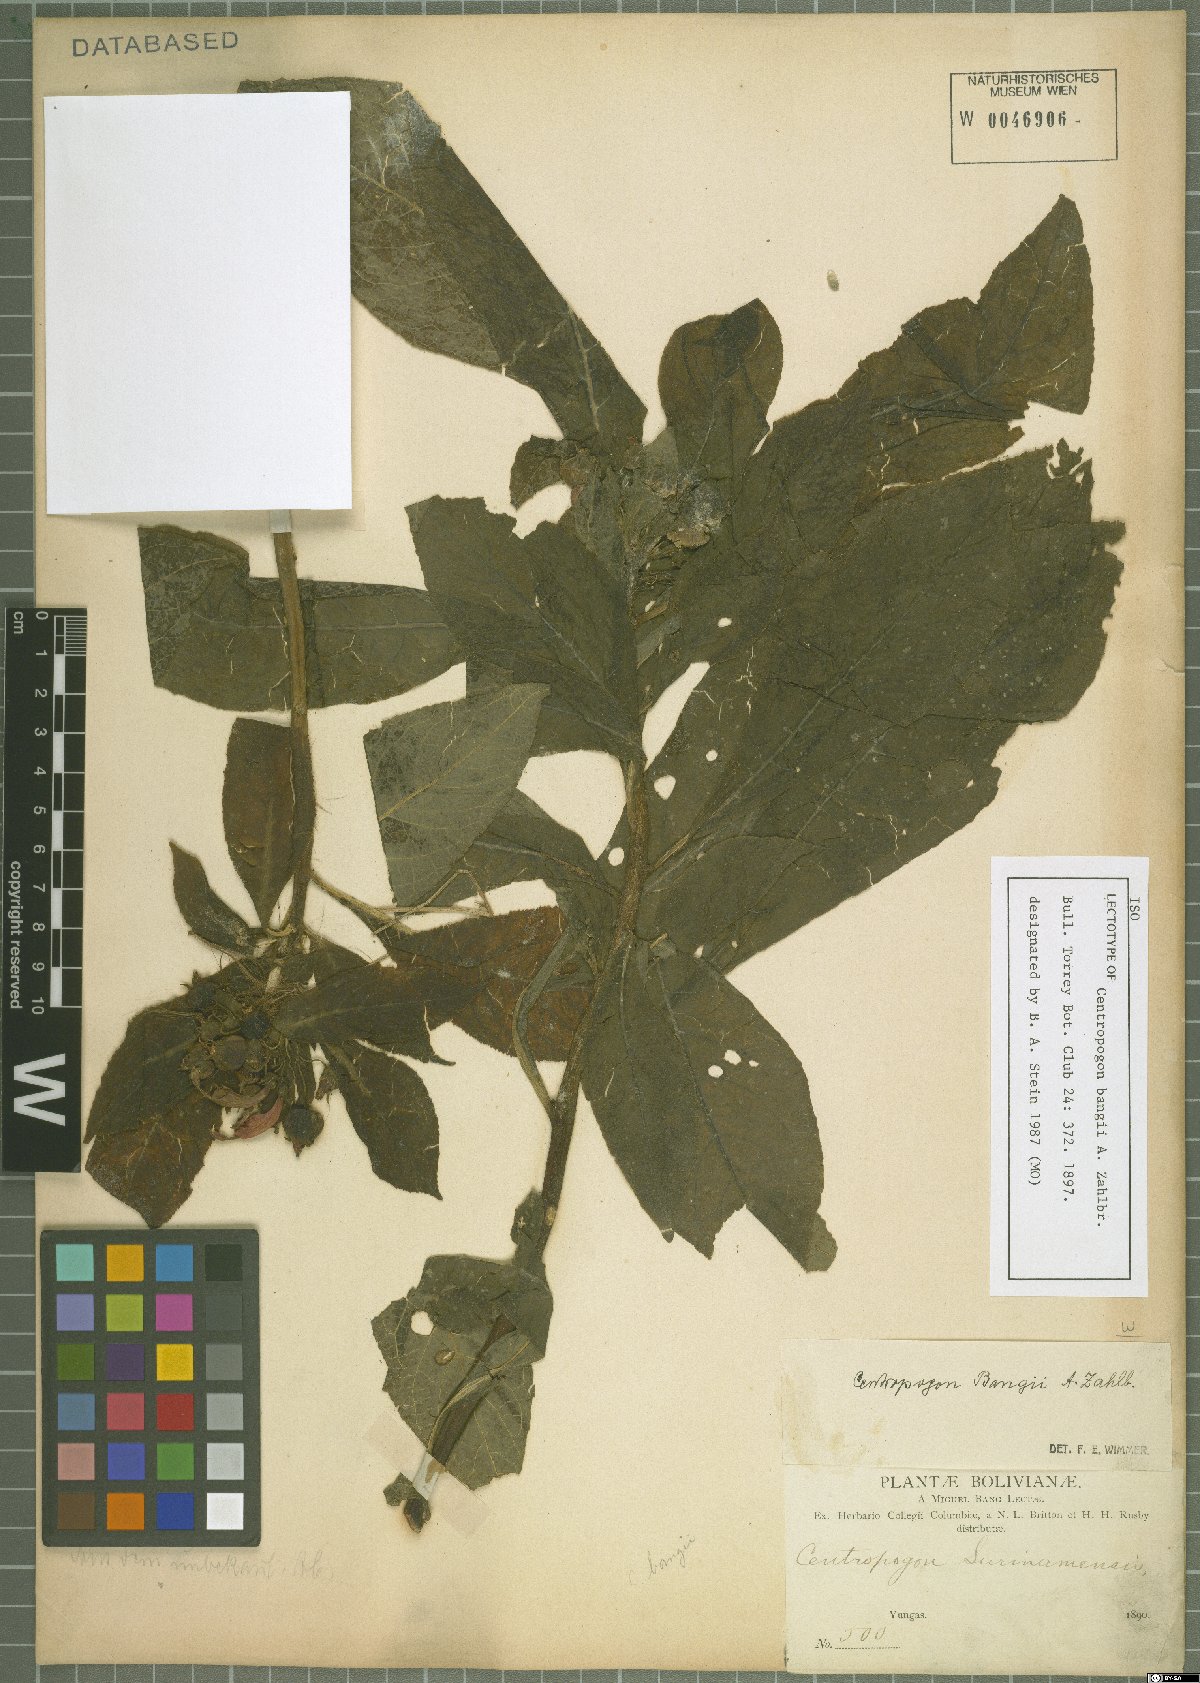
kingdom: Plantae
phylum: Tracheophyta
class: Magnoliopsida
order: Asterales
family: Campanulaceae
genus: Centropogon
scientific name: Centropogon bangii
